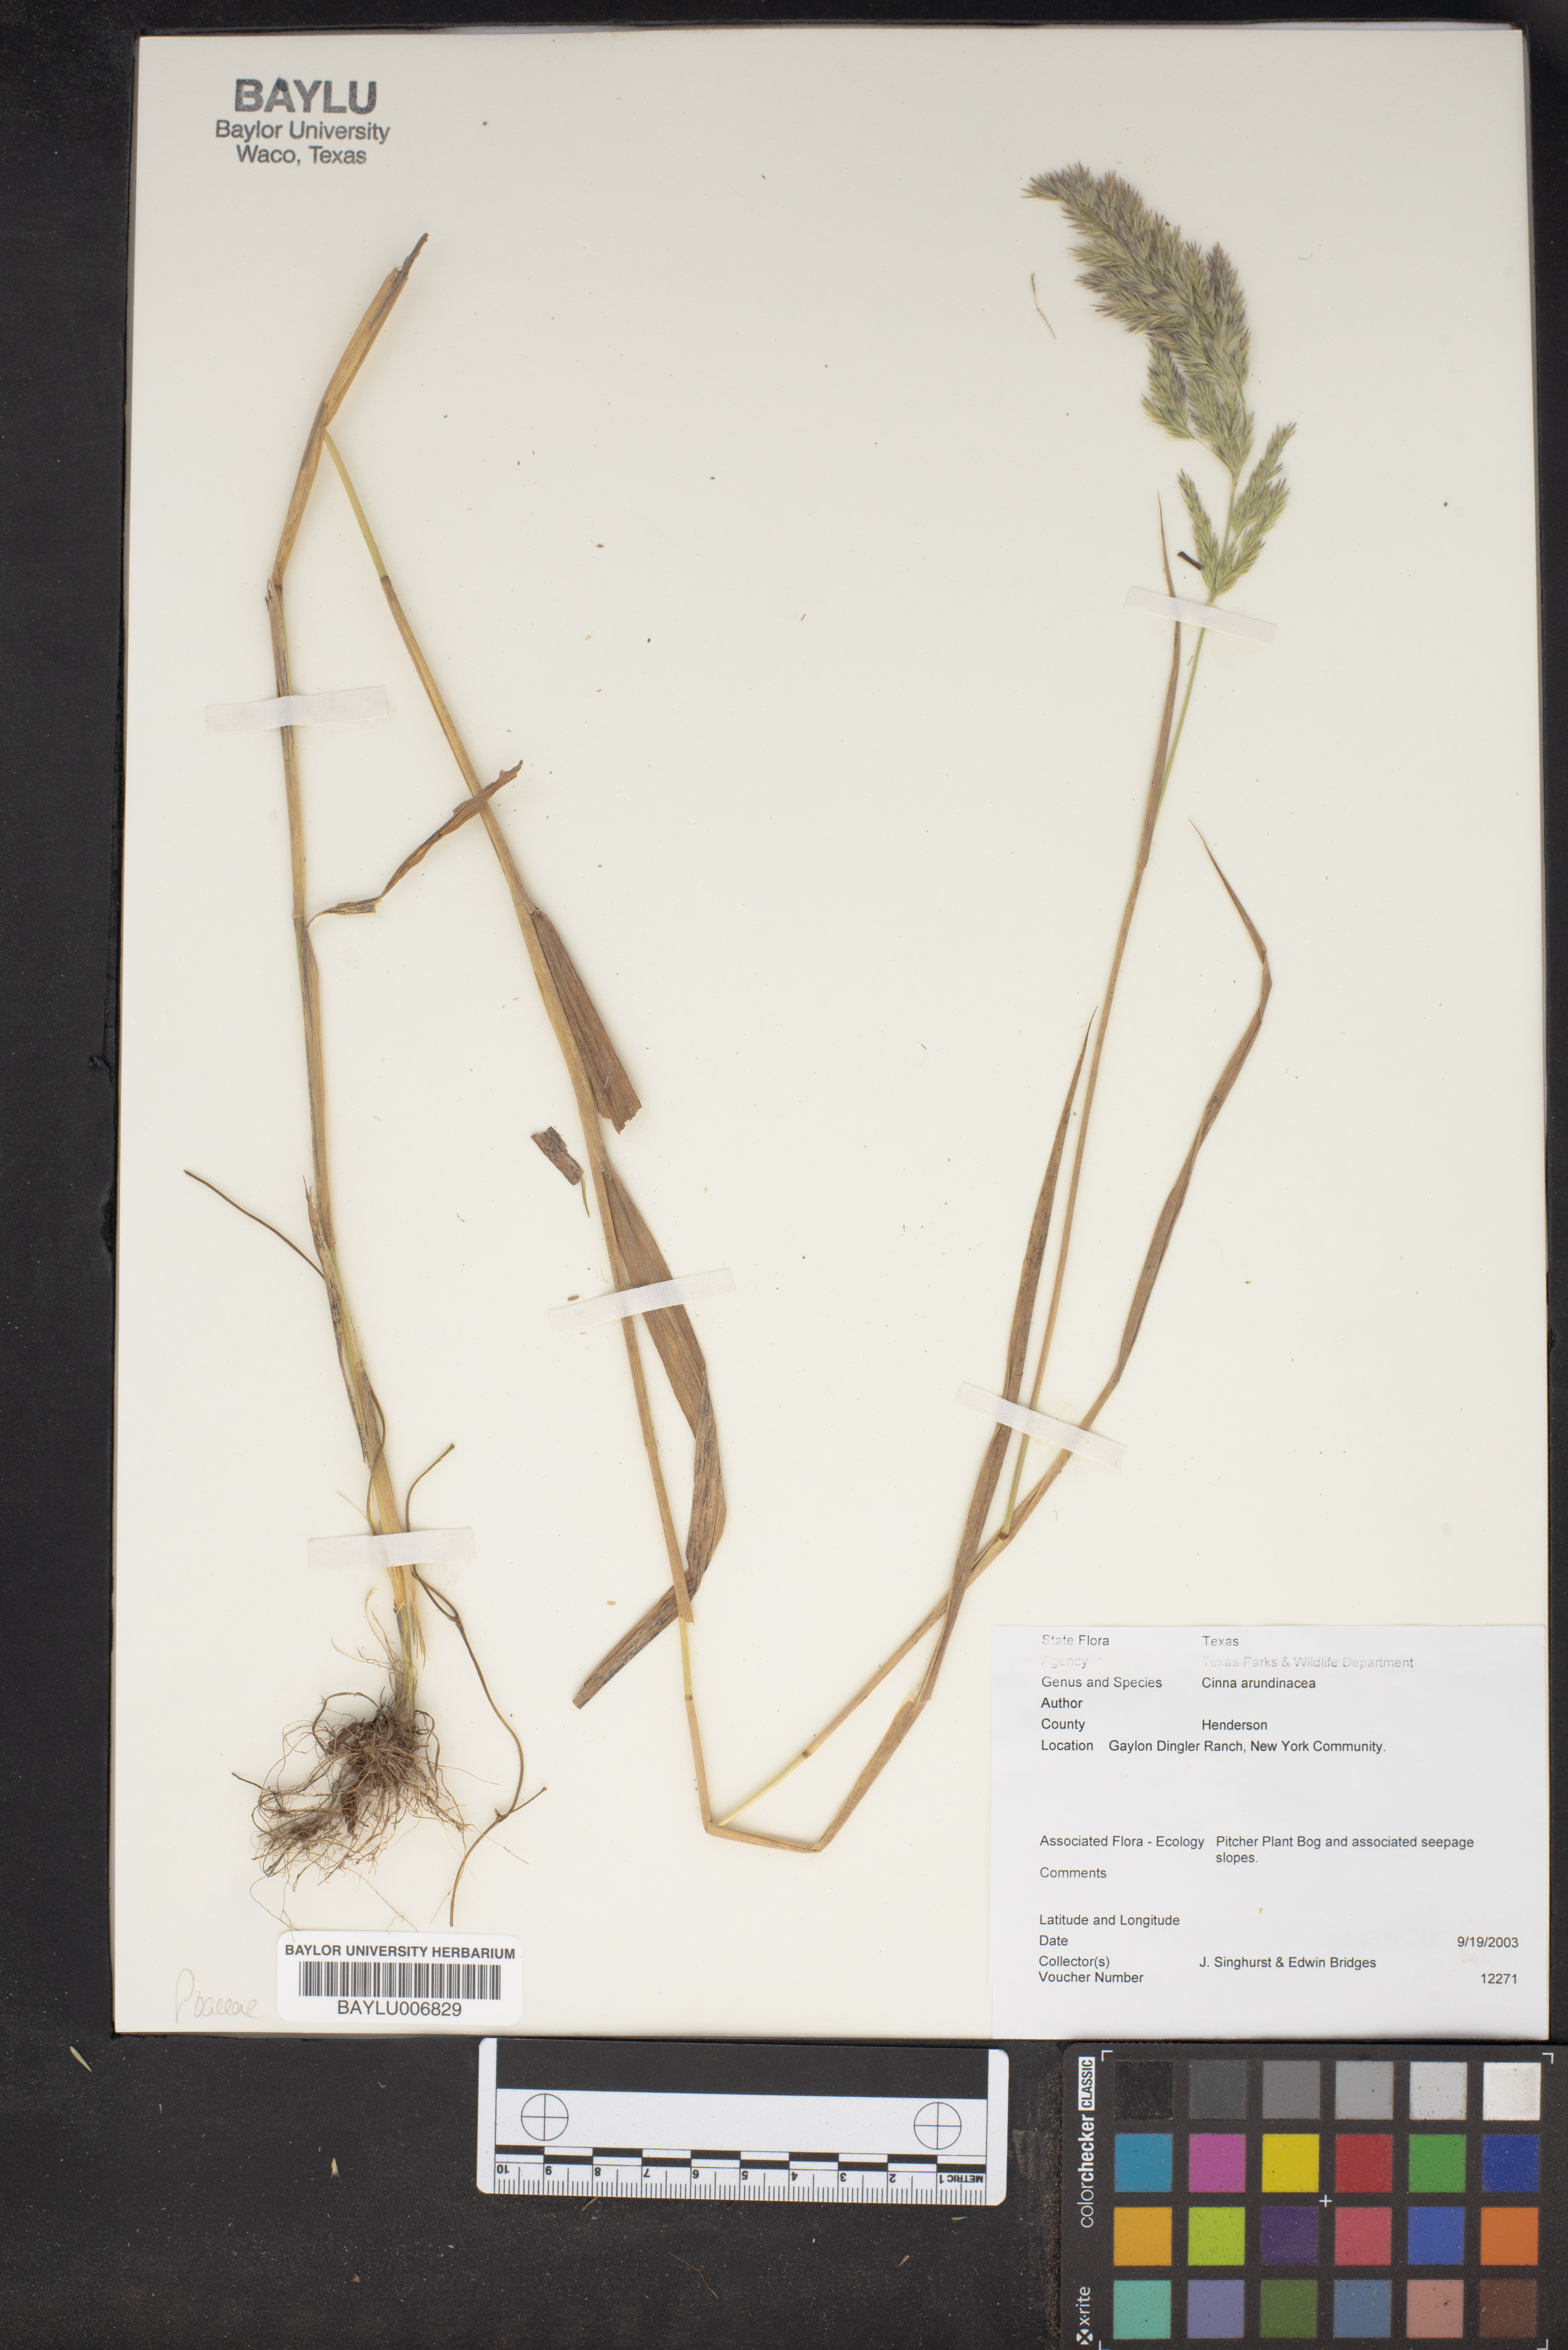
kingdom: Plantae
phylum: Tracheophyta
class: Liliopsida
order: Poales
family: Poaceae
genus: Cinna
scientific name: Cinna arundinacea
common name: Stout woodreed
